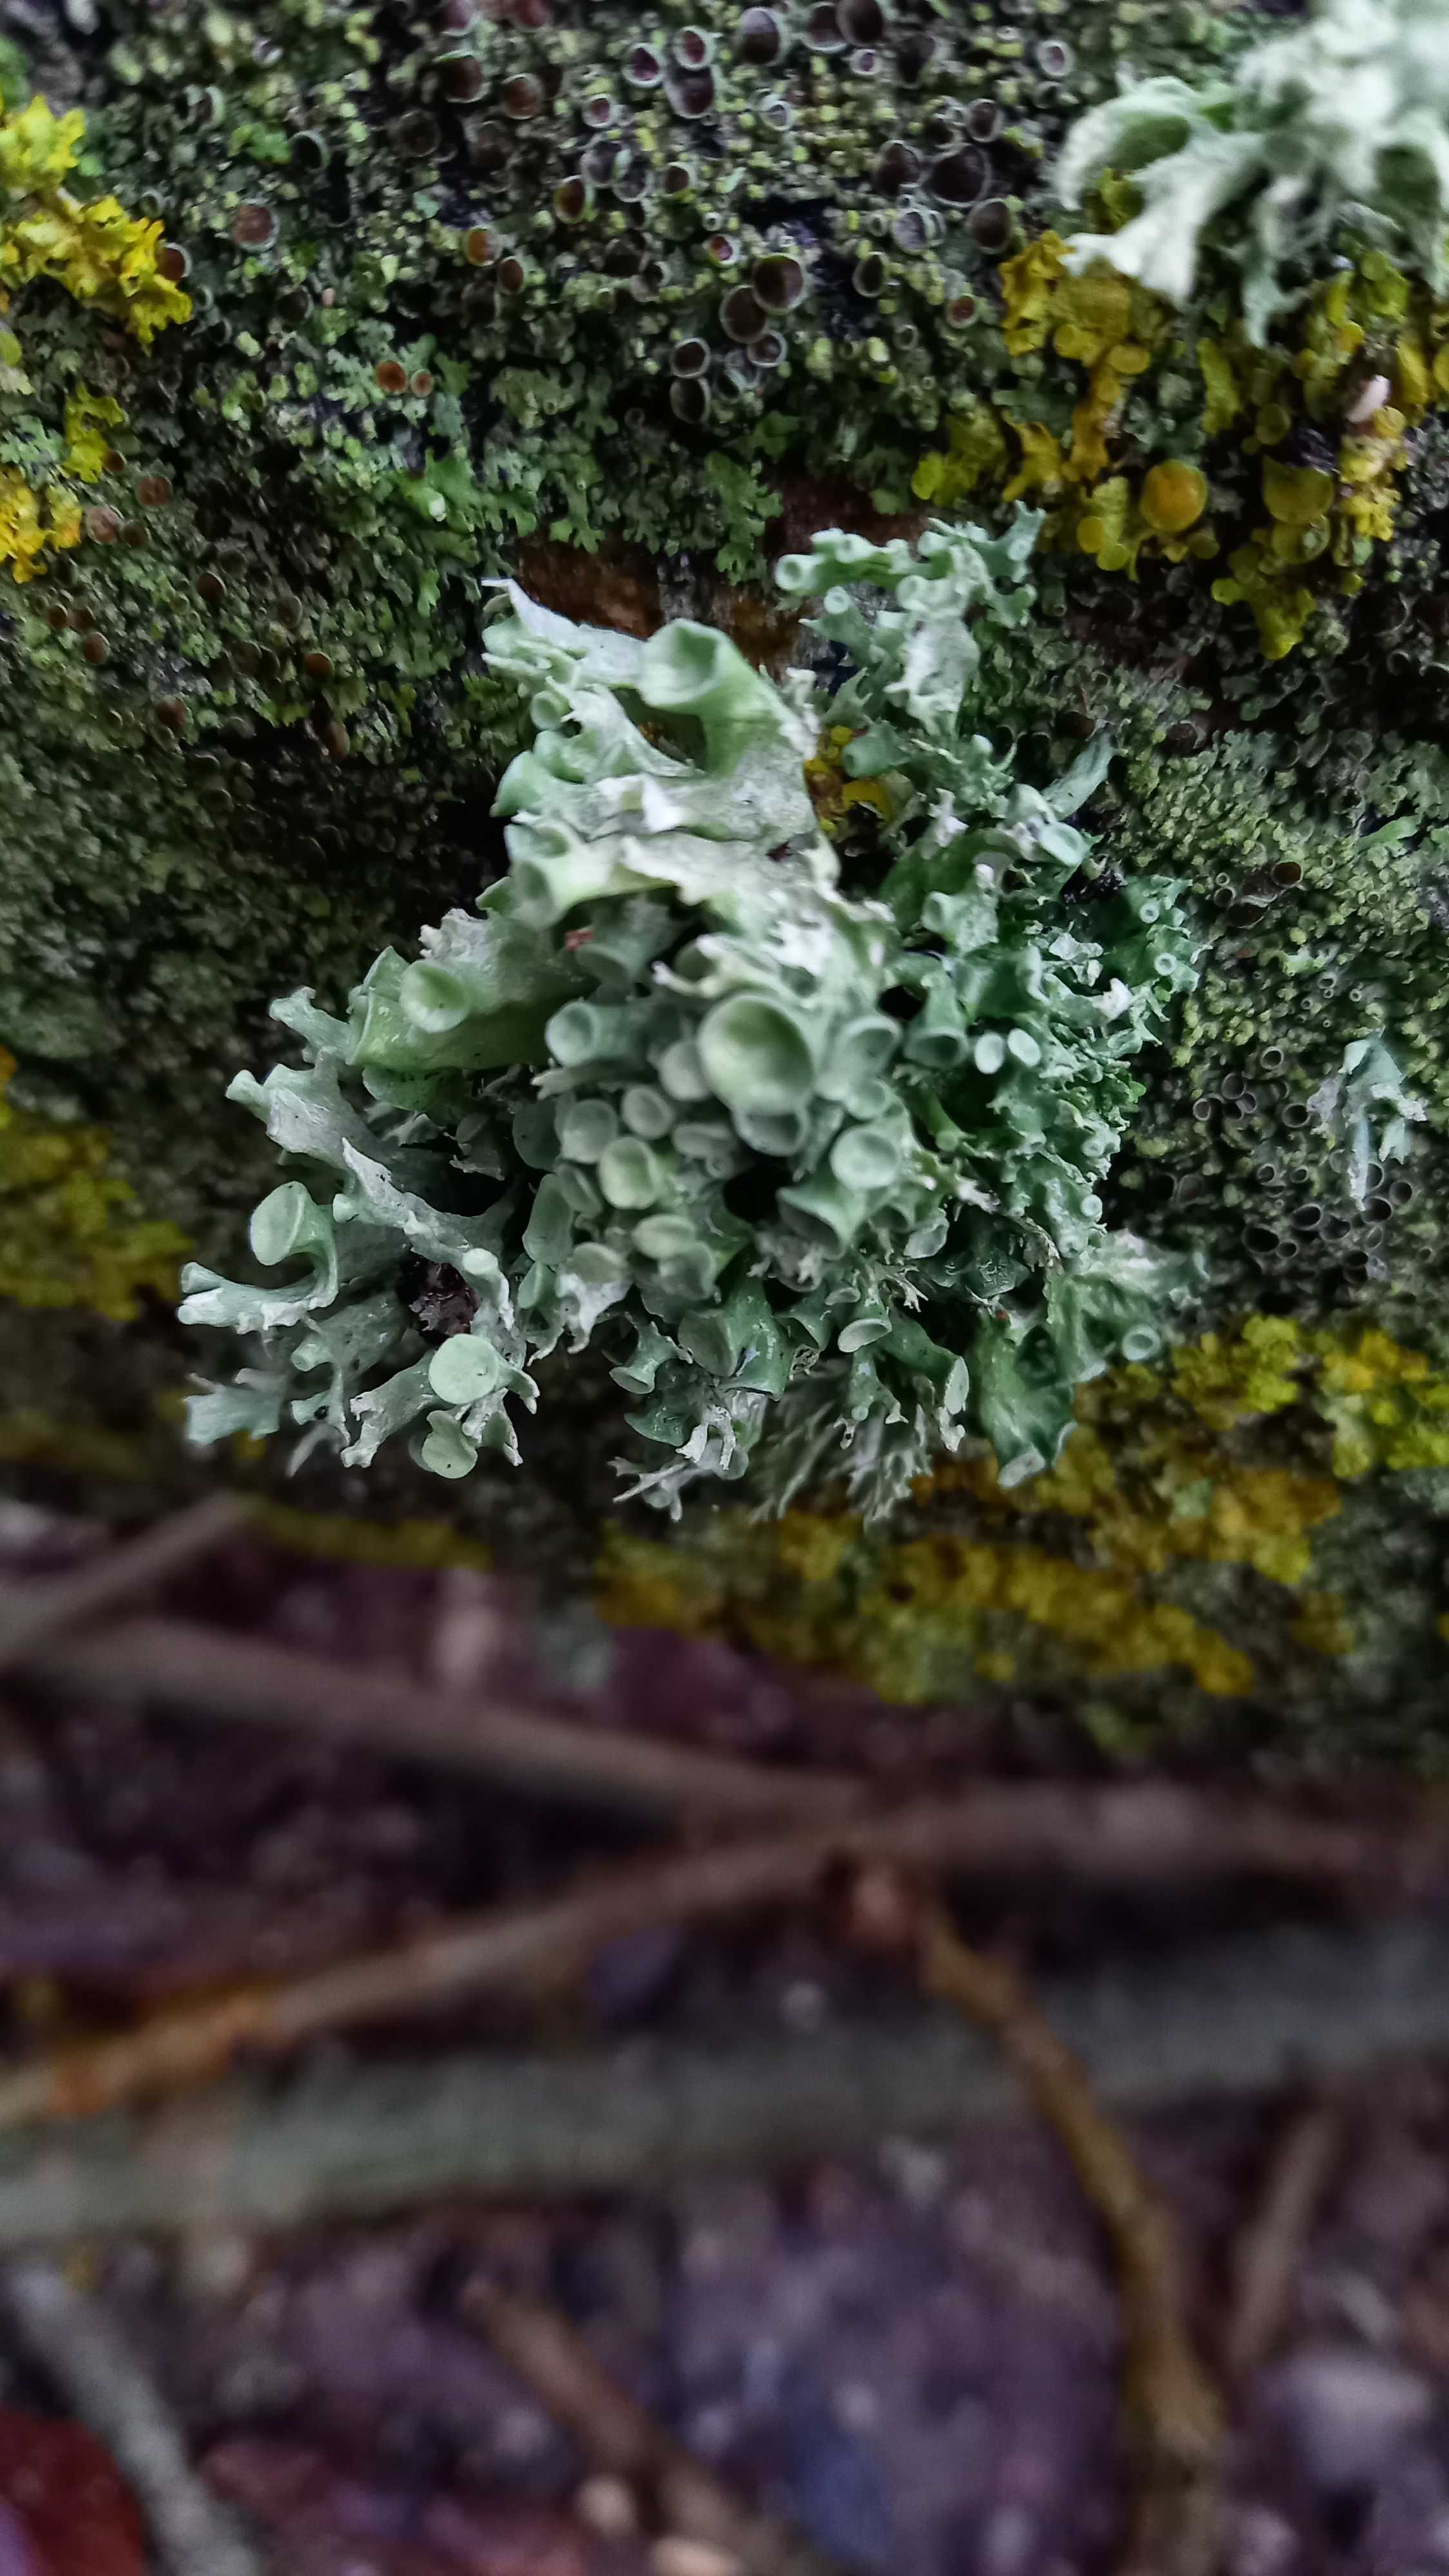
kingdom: Fungi
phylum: Ascomycota
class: Lecanoromycetes
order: Lecanorales
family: Ramalinaceae
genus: Ramalina
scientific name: Ramalina fastigiata
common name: tue-grenlav
